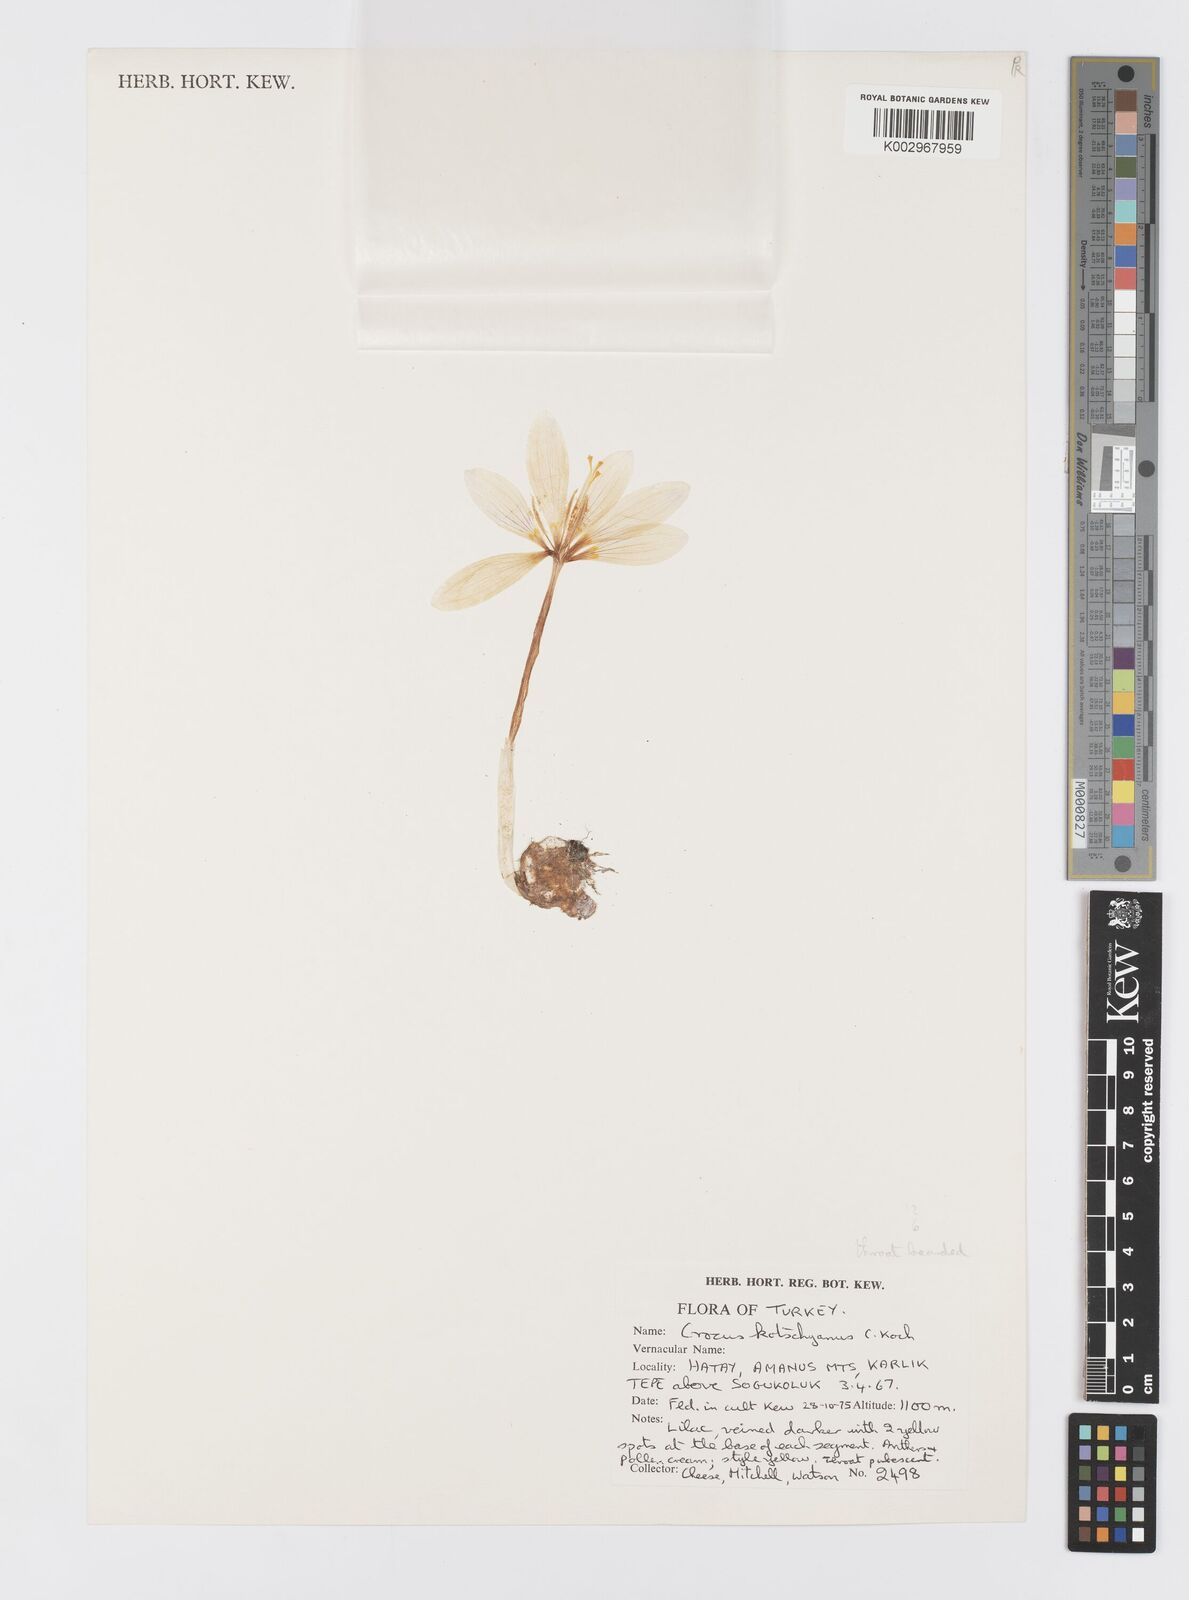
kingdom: Plantae
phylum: Tracheophyta
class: Liliopsida
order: Asparagales
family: Iridaceae
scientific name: Iridaceae
